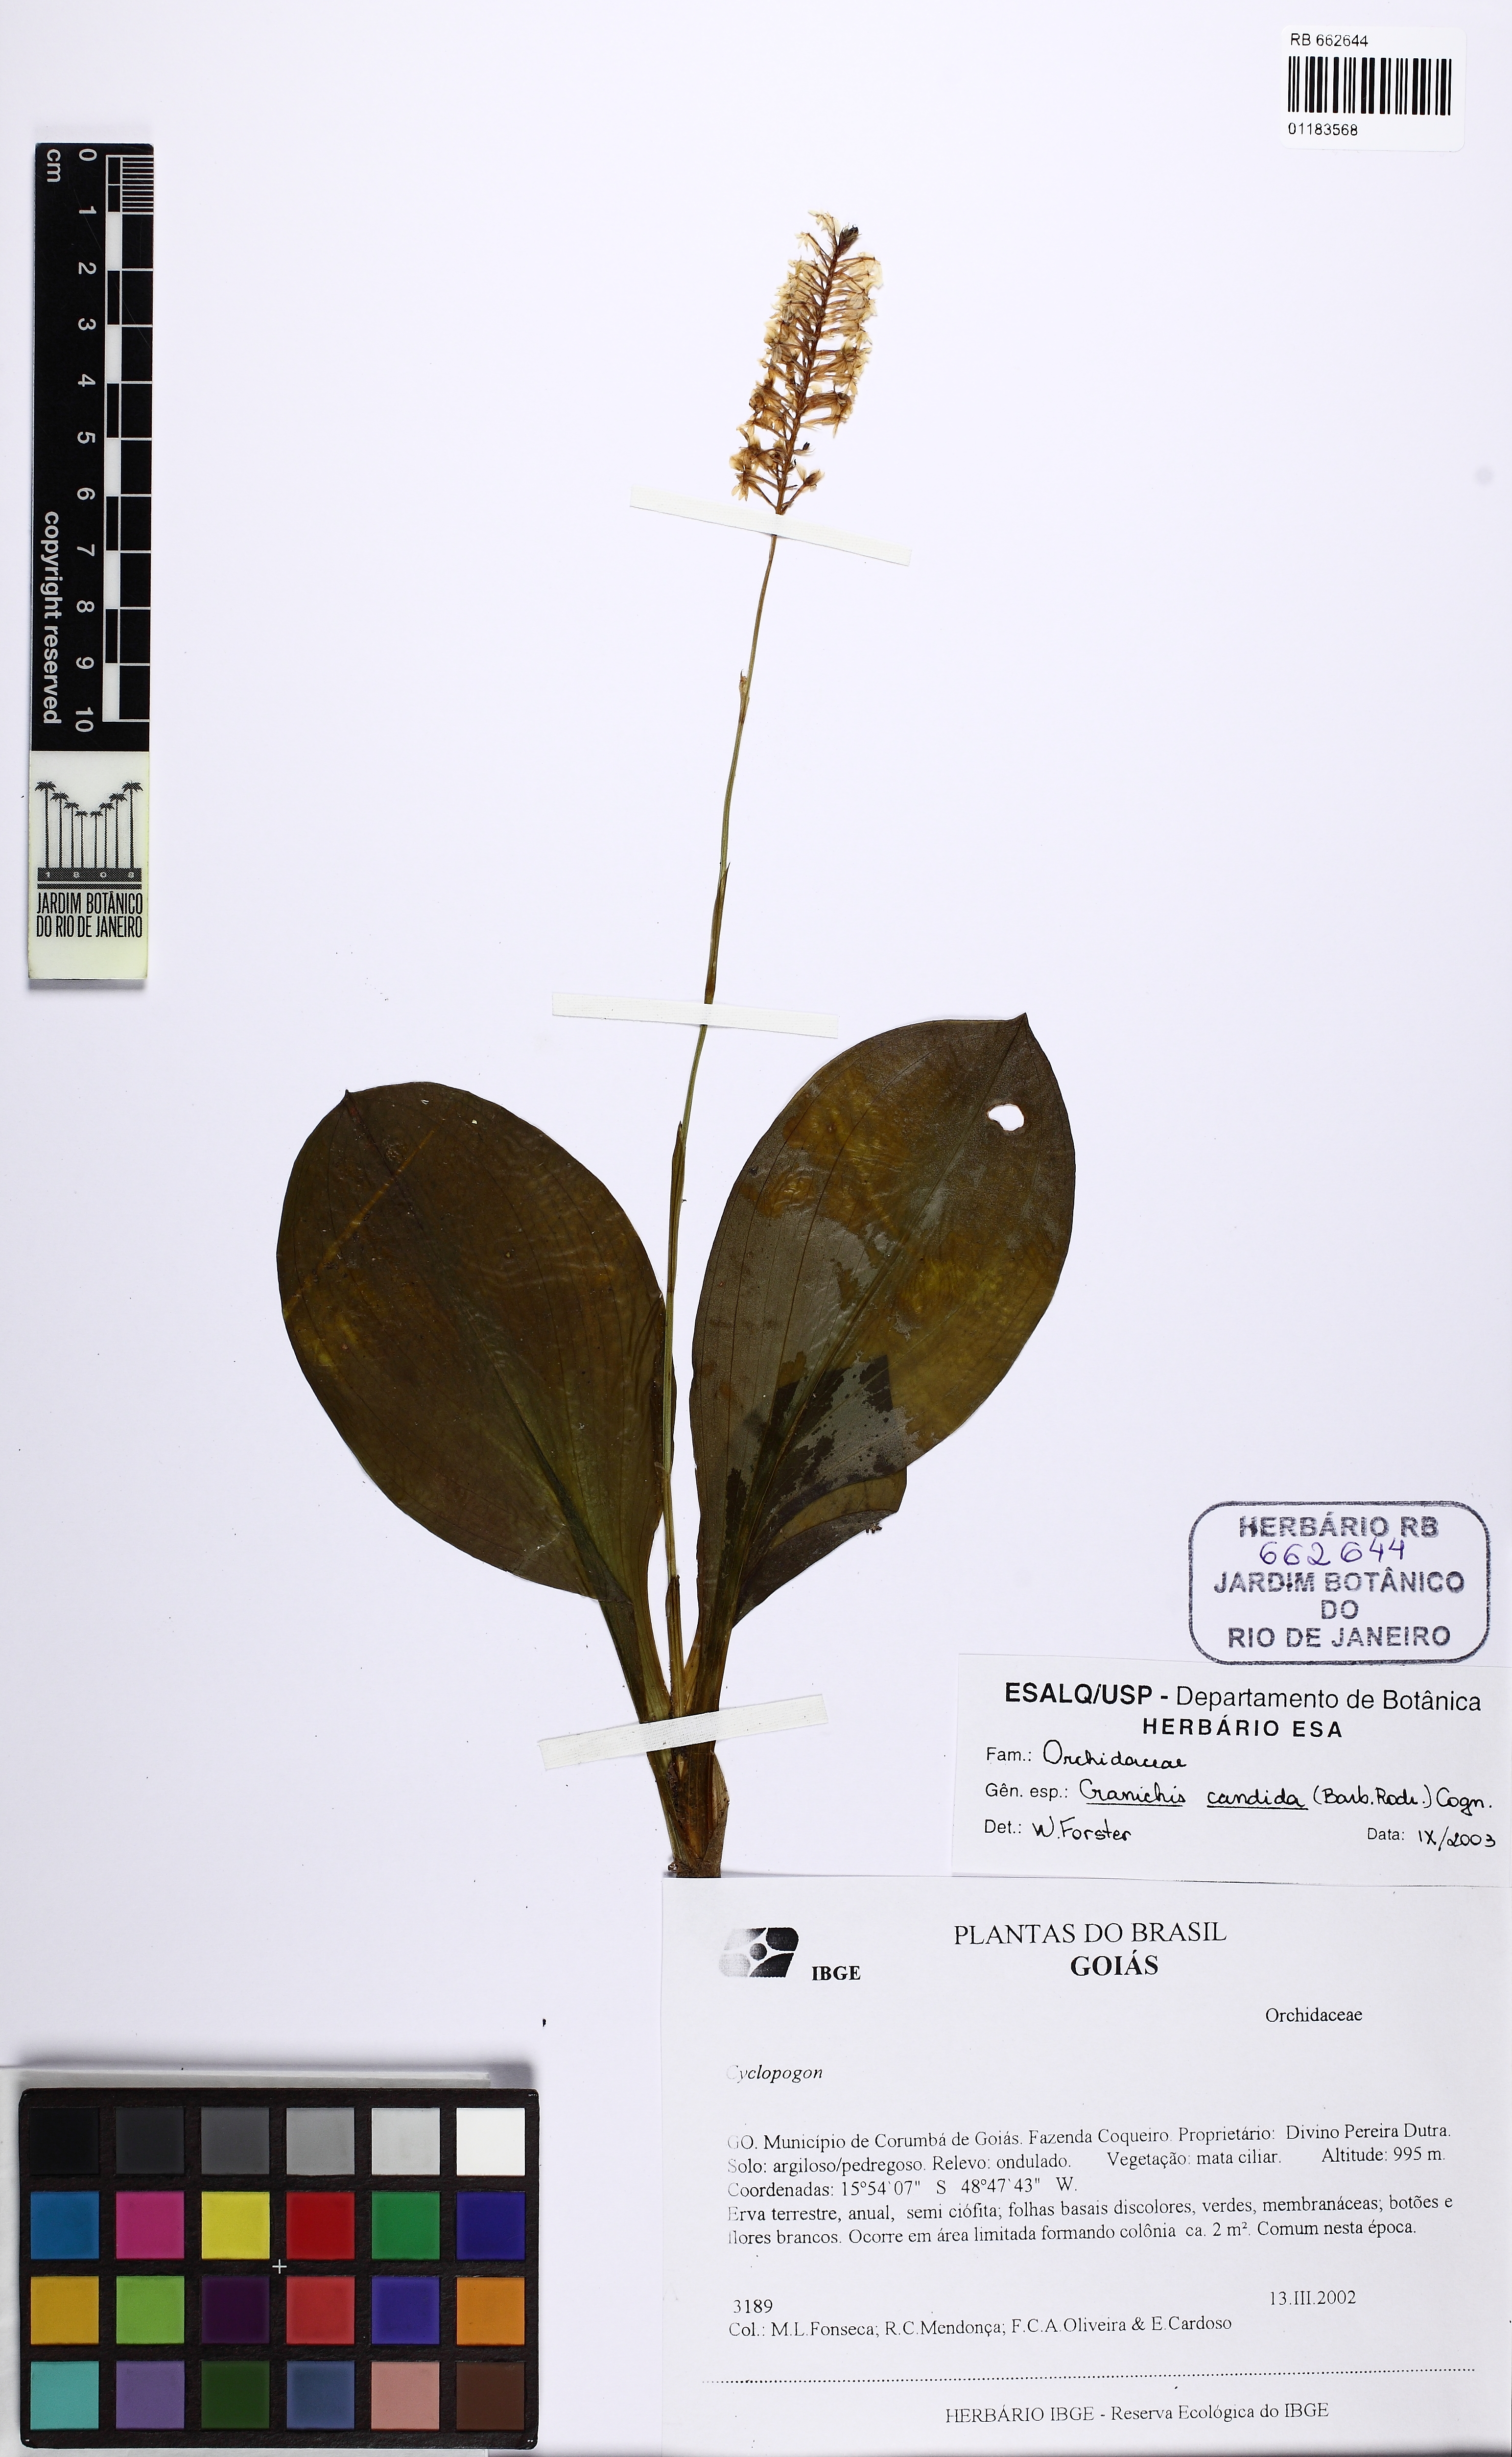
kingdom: Plantae
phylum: Tracheophyta
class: Liliopsida
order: Asparagales
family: Orchidaceae
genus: Cranichis
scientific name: Cranichis candida
